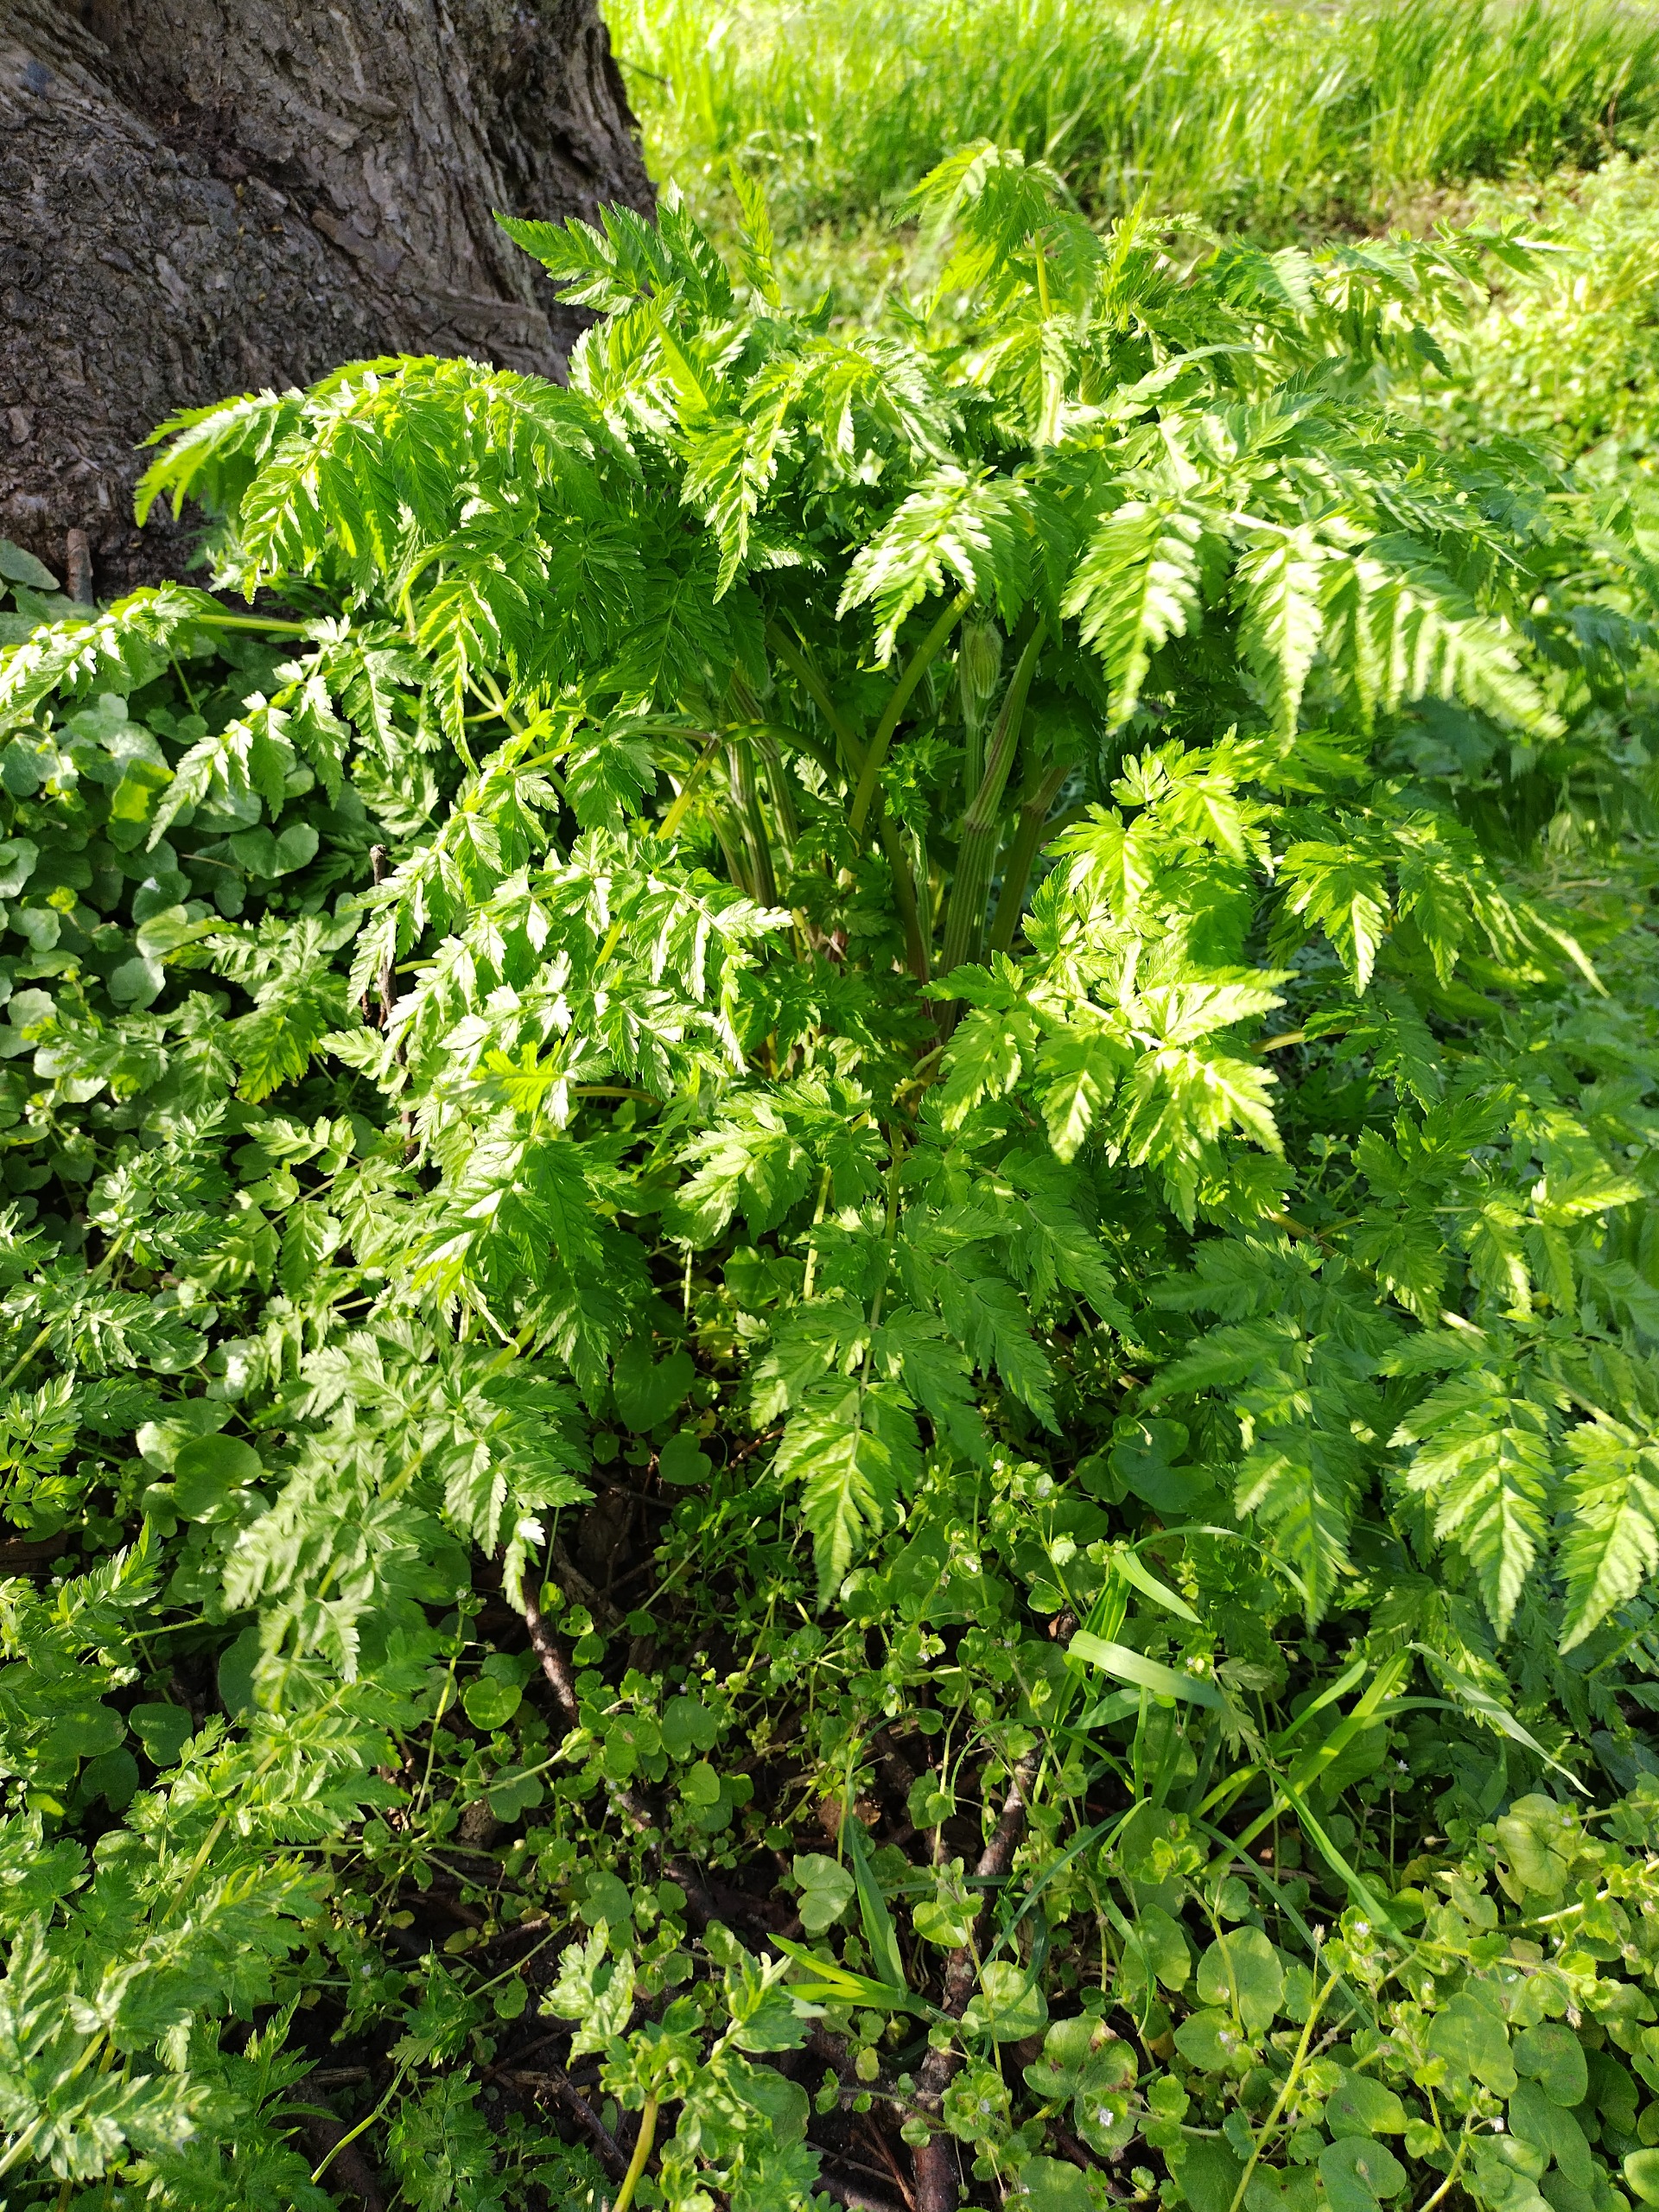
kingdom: Plantae
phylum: Tracheophyta
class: Magnoliopsida
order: Apiales
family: Apiaceae
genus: Anthriscus
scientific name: Anthriscus sylvestris
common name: Vild kørvel
